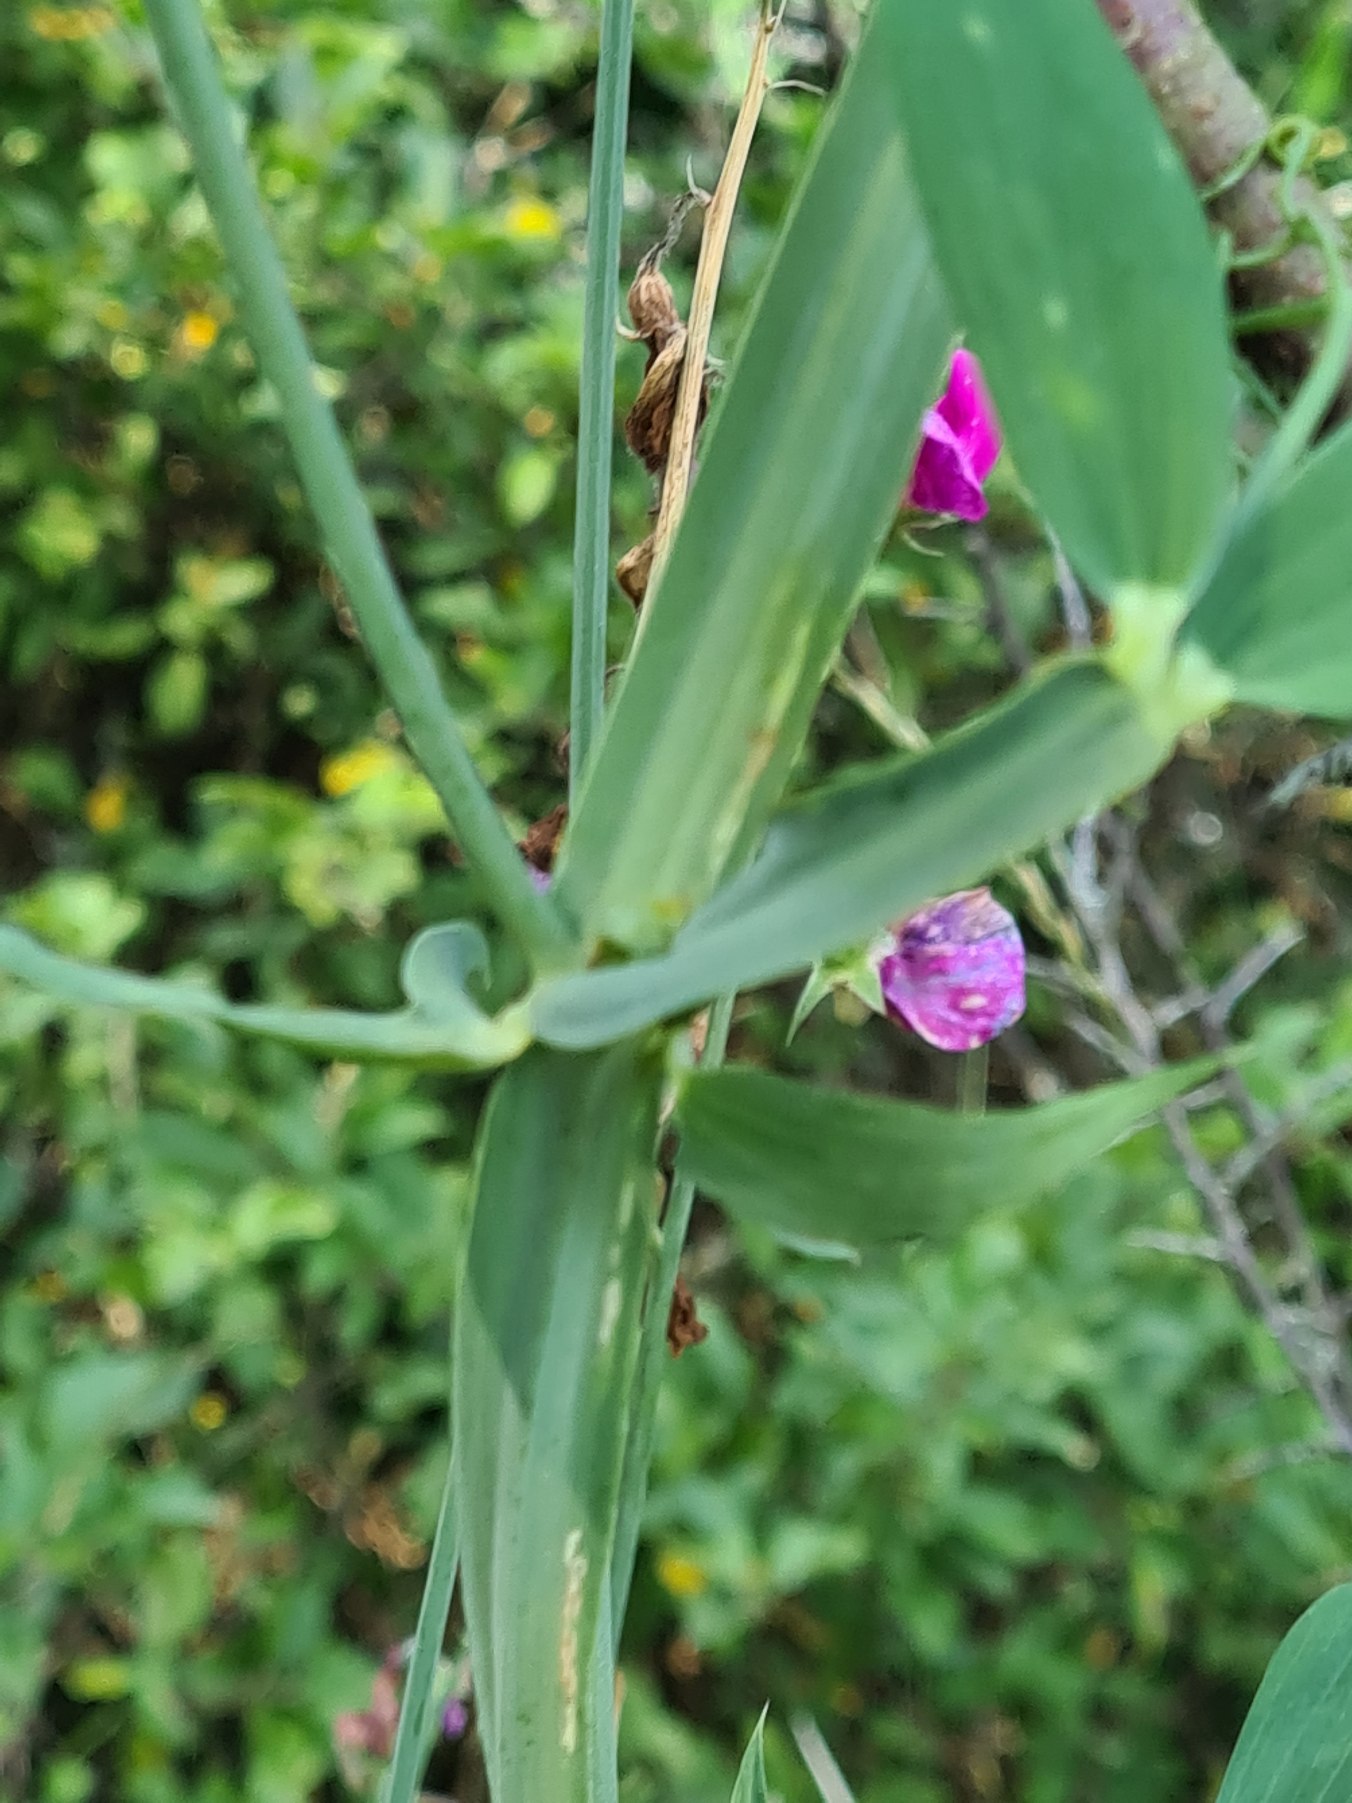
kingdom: Plantae
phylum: Tracheophyta
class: Magnoliopsida
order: Fabales
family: Fabaceae
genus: Lathyrus
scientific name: Lathyrus latifolius
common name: Flerårig ærteblomst
